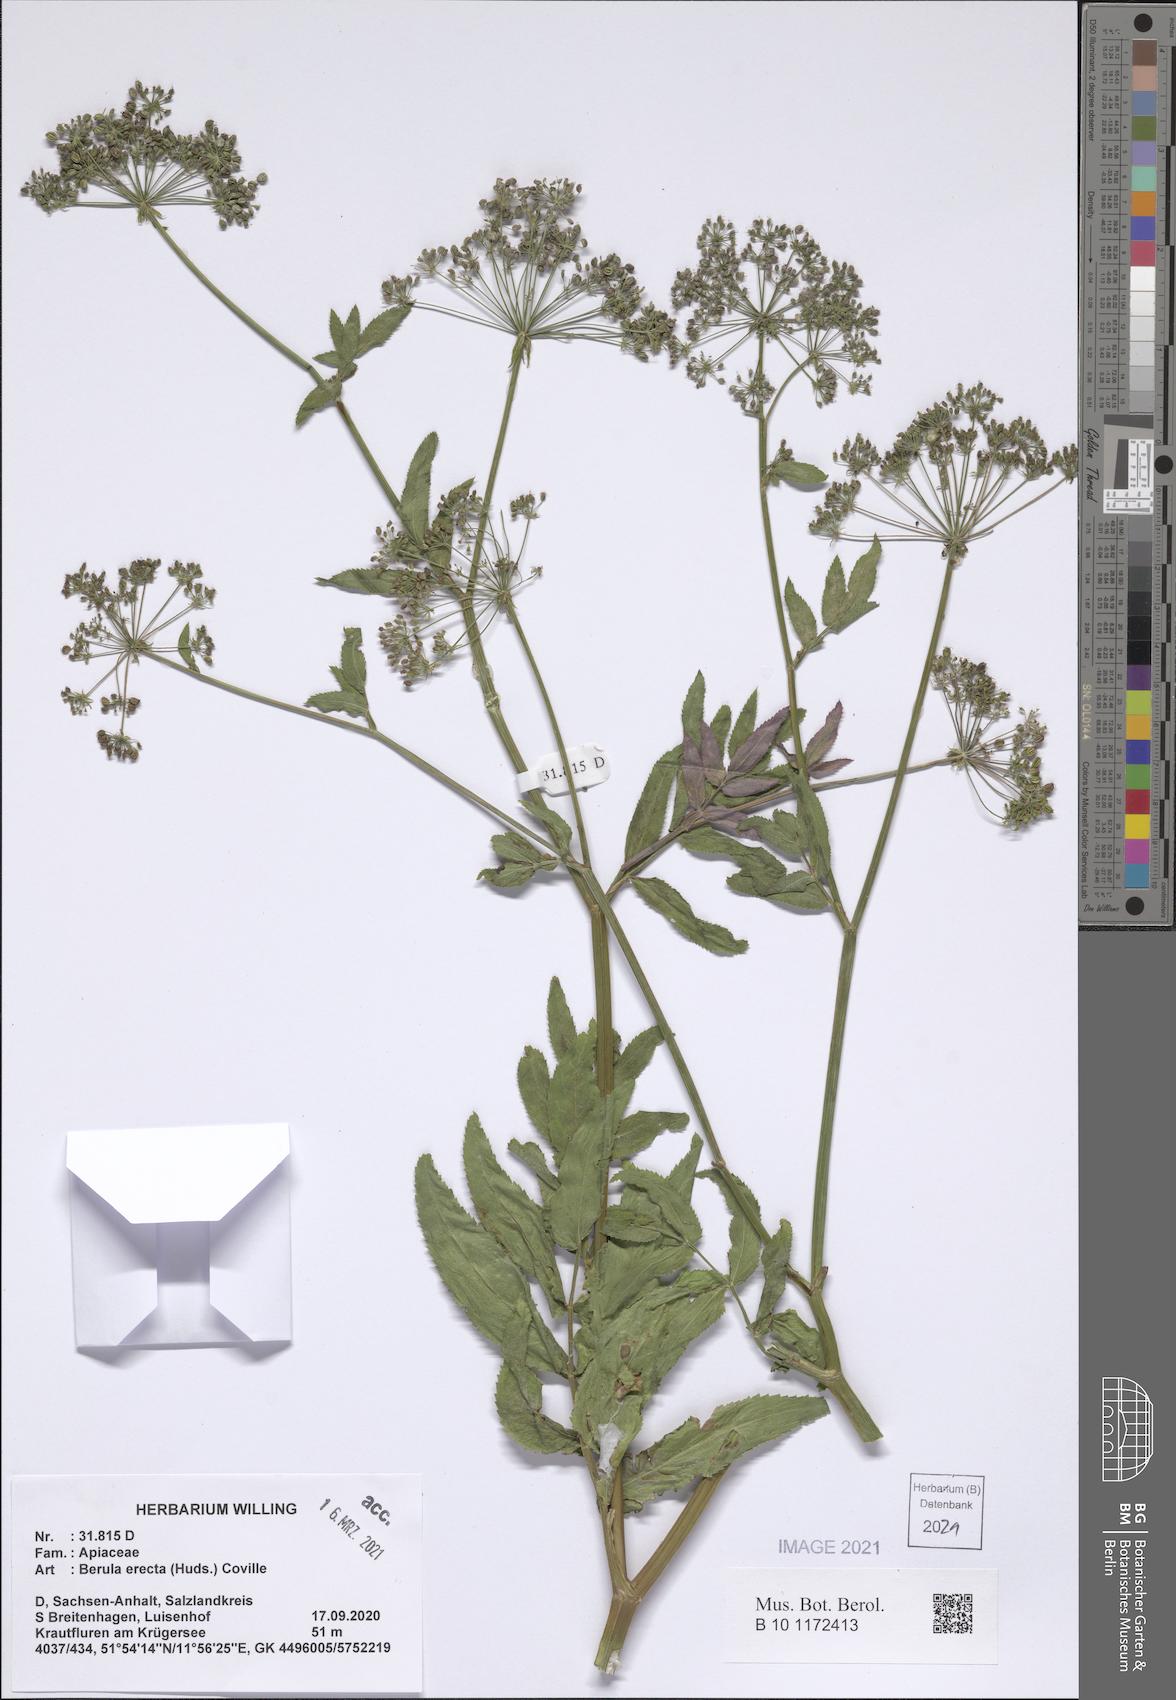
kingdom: Plantae
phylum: Tracheophyta
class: Magnoliopsida
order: Apiales
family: Apiaceae
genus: Berula
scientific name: Berula erecta
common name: Lesser water-parsnip
